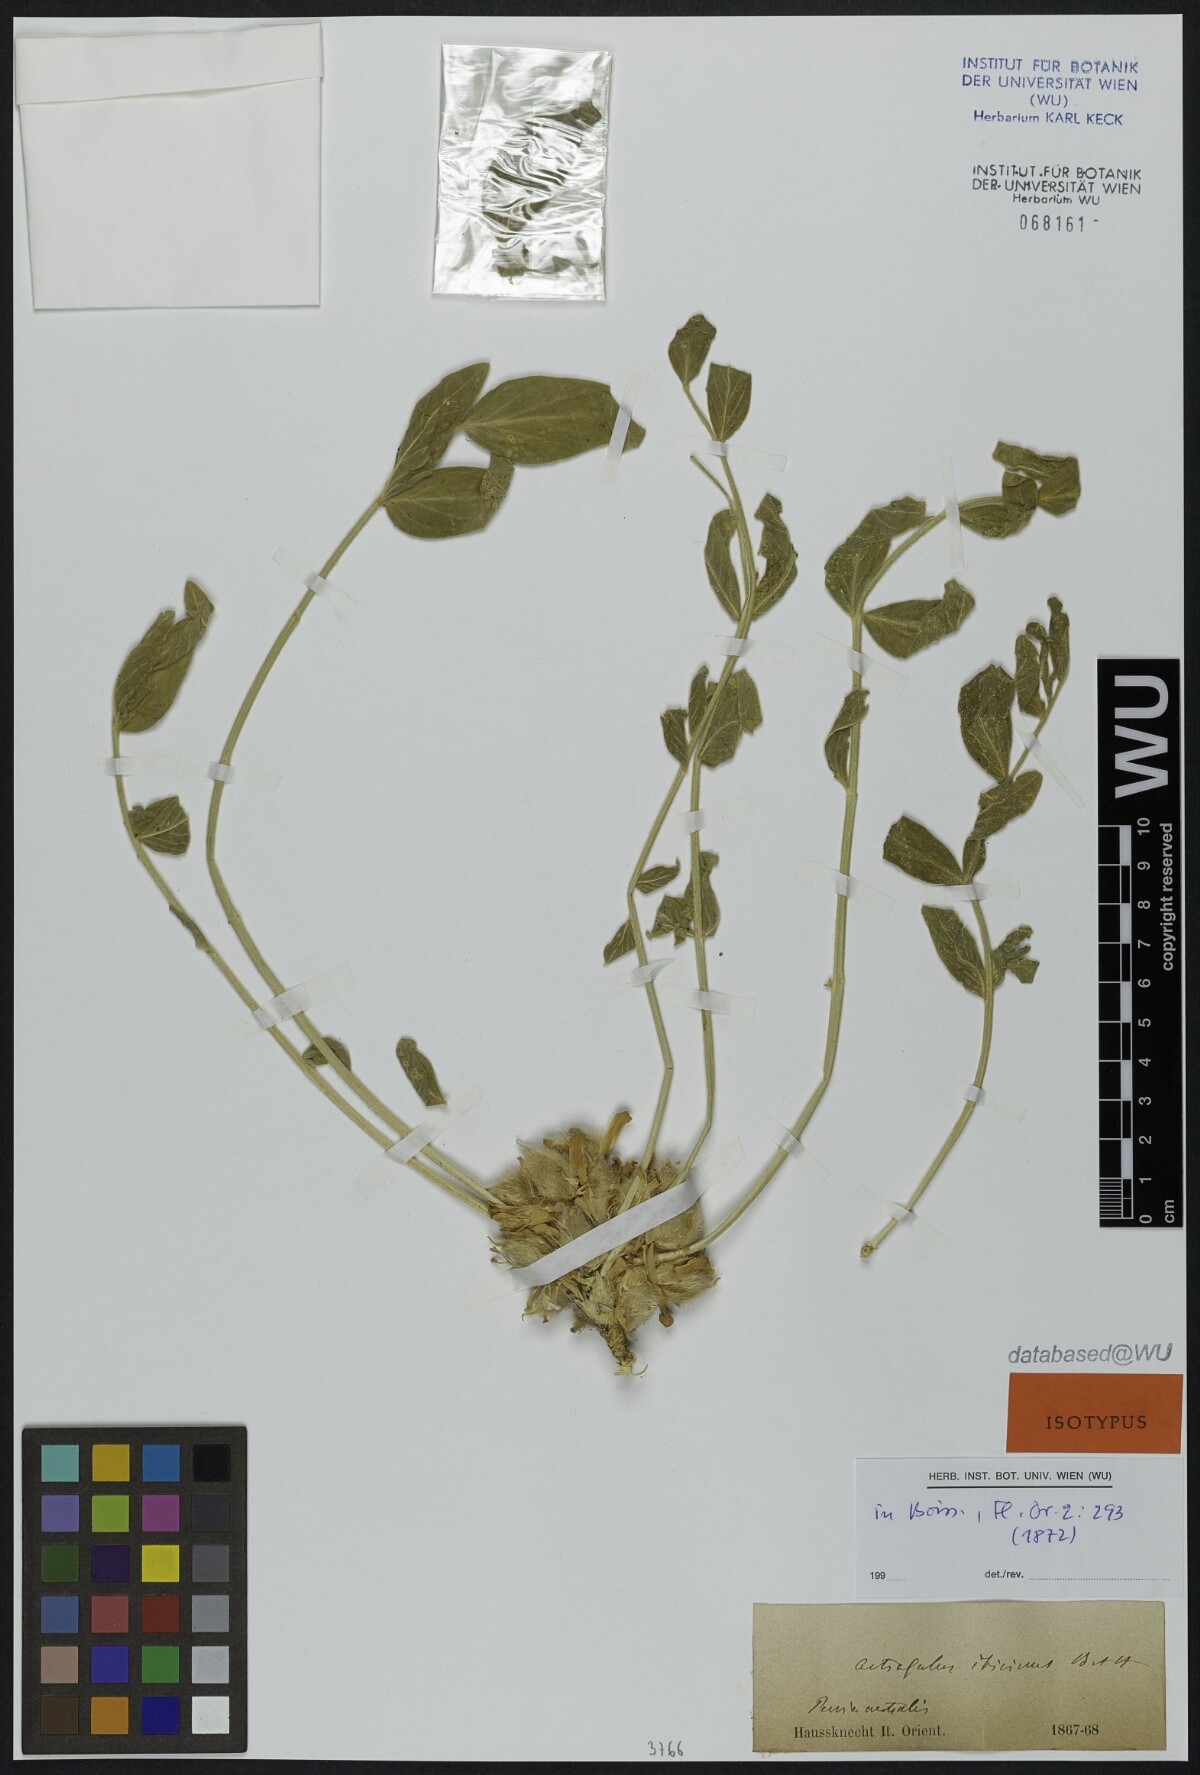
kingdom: Plantae
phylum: Tracheophyta
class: Magnoliopsida
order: Fabales
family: Fabaceae
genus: Astragalus
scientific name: Astragalus ibicinus
